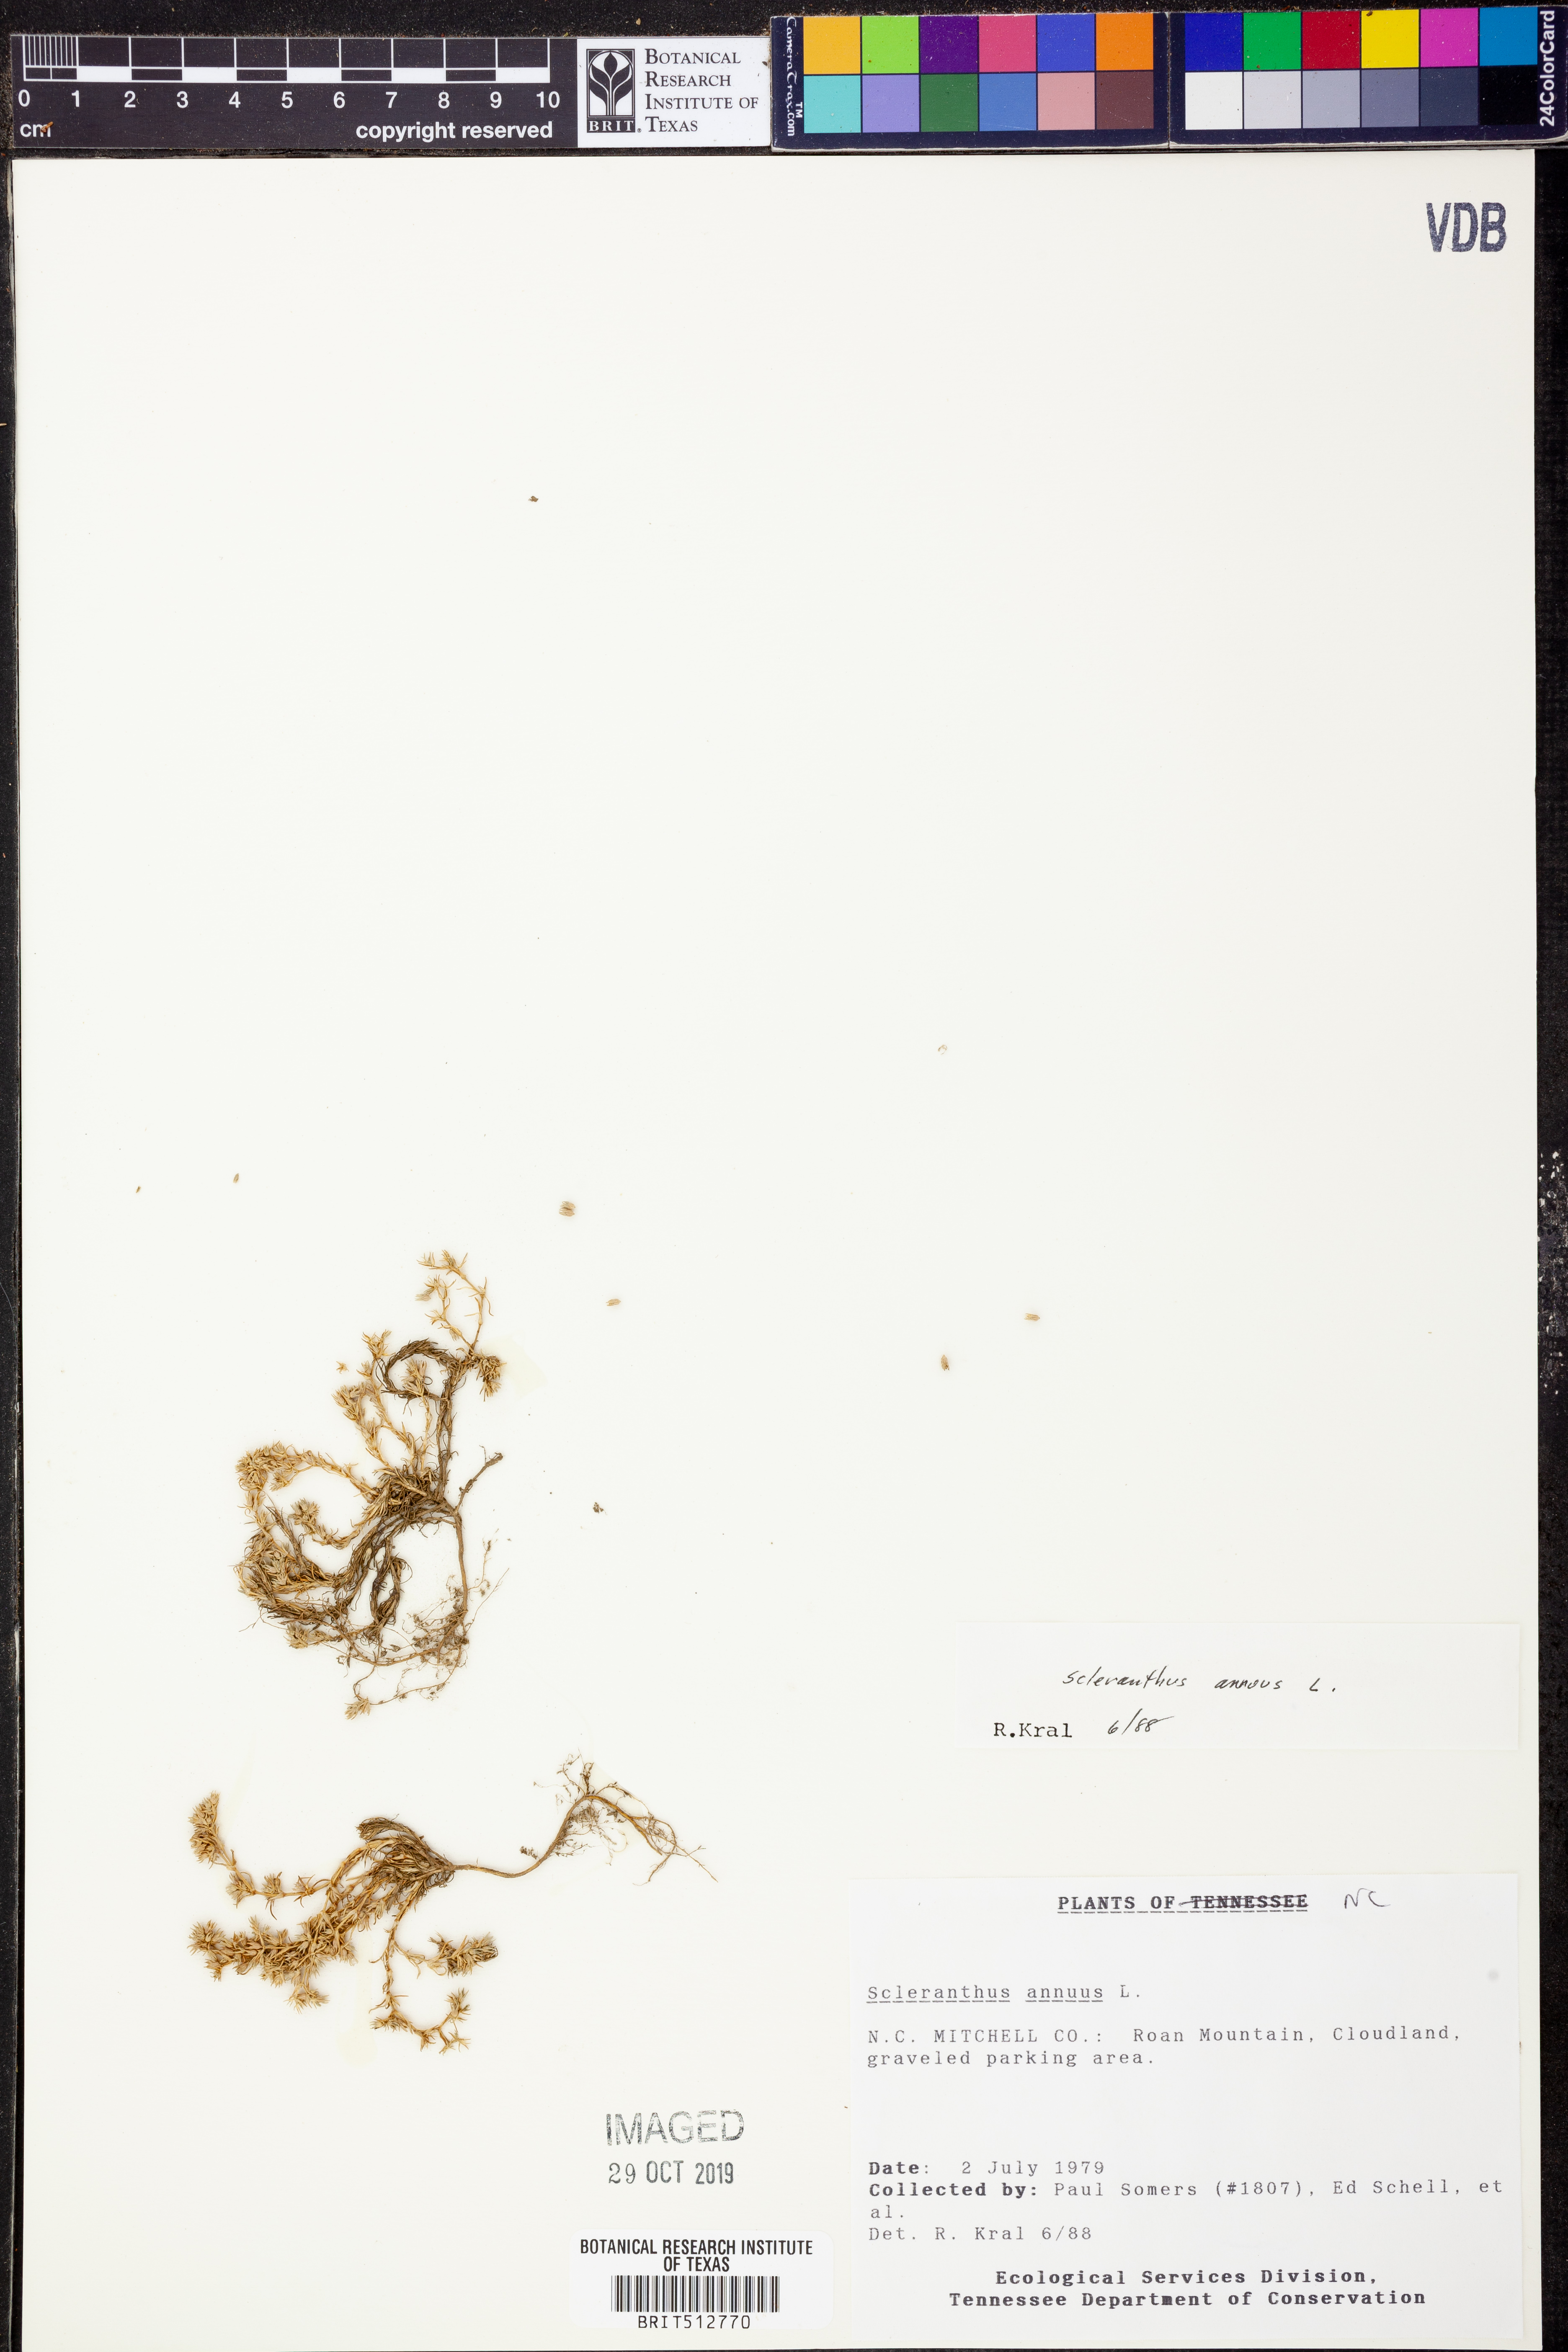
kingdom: Plantae
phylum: Tracheophyta
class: Magnoliopsida
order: Caryophyllales
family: Caryophyllaceae
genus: Scleranthus
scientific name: Scleranthus annuus
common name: Annual knawel
